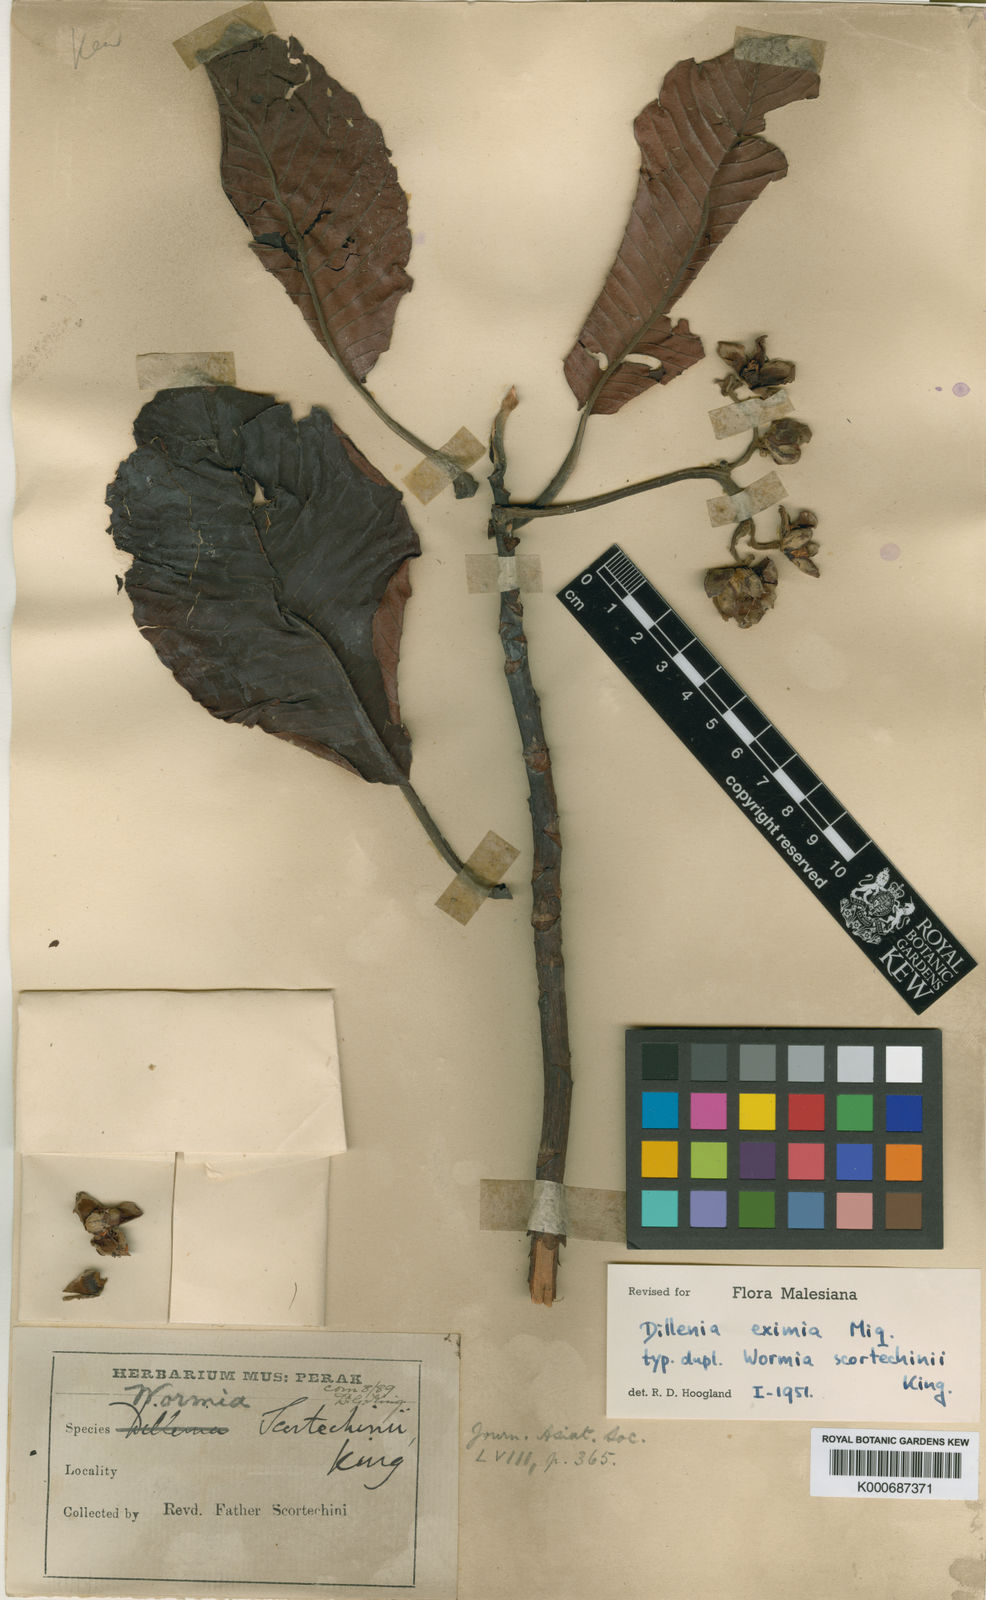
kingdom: Plantae
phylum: Tracheophyta
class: Magnoliopsida
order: Dilleniales
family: Dilleniaceae
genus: Dillenia
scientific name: Dillenia grandifolia
